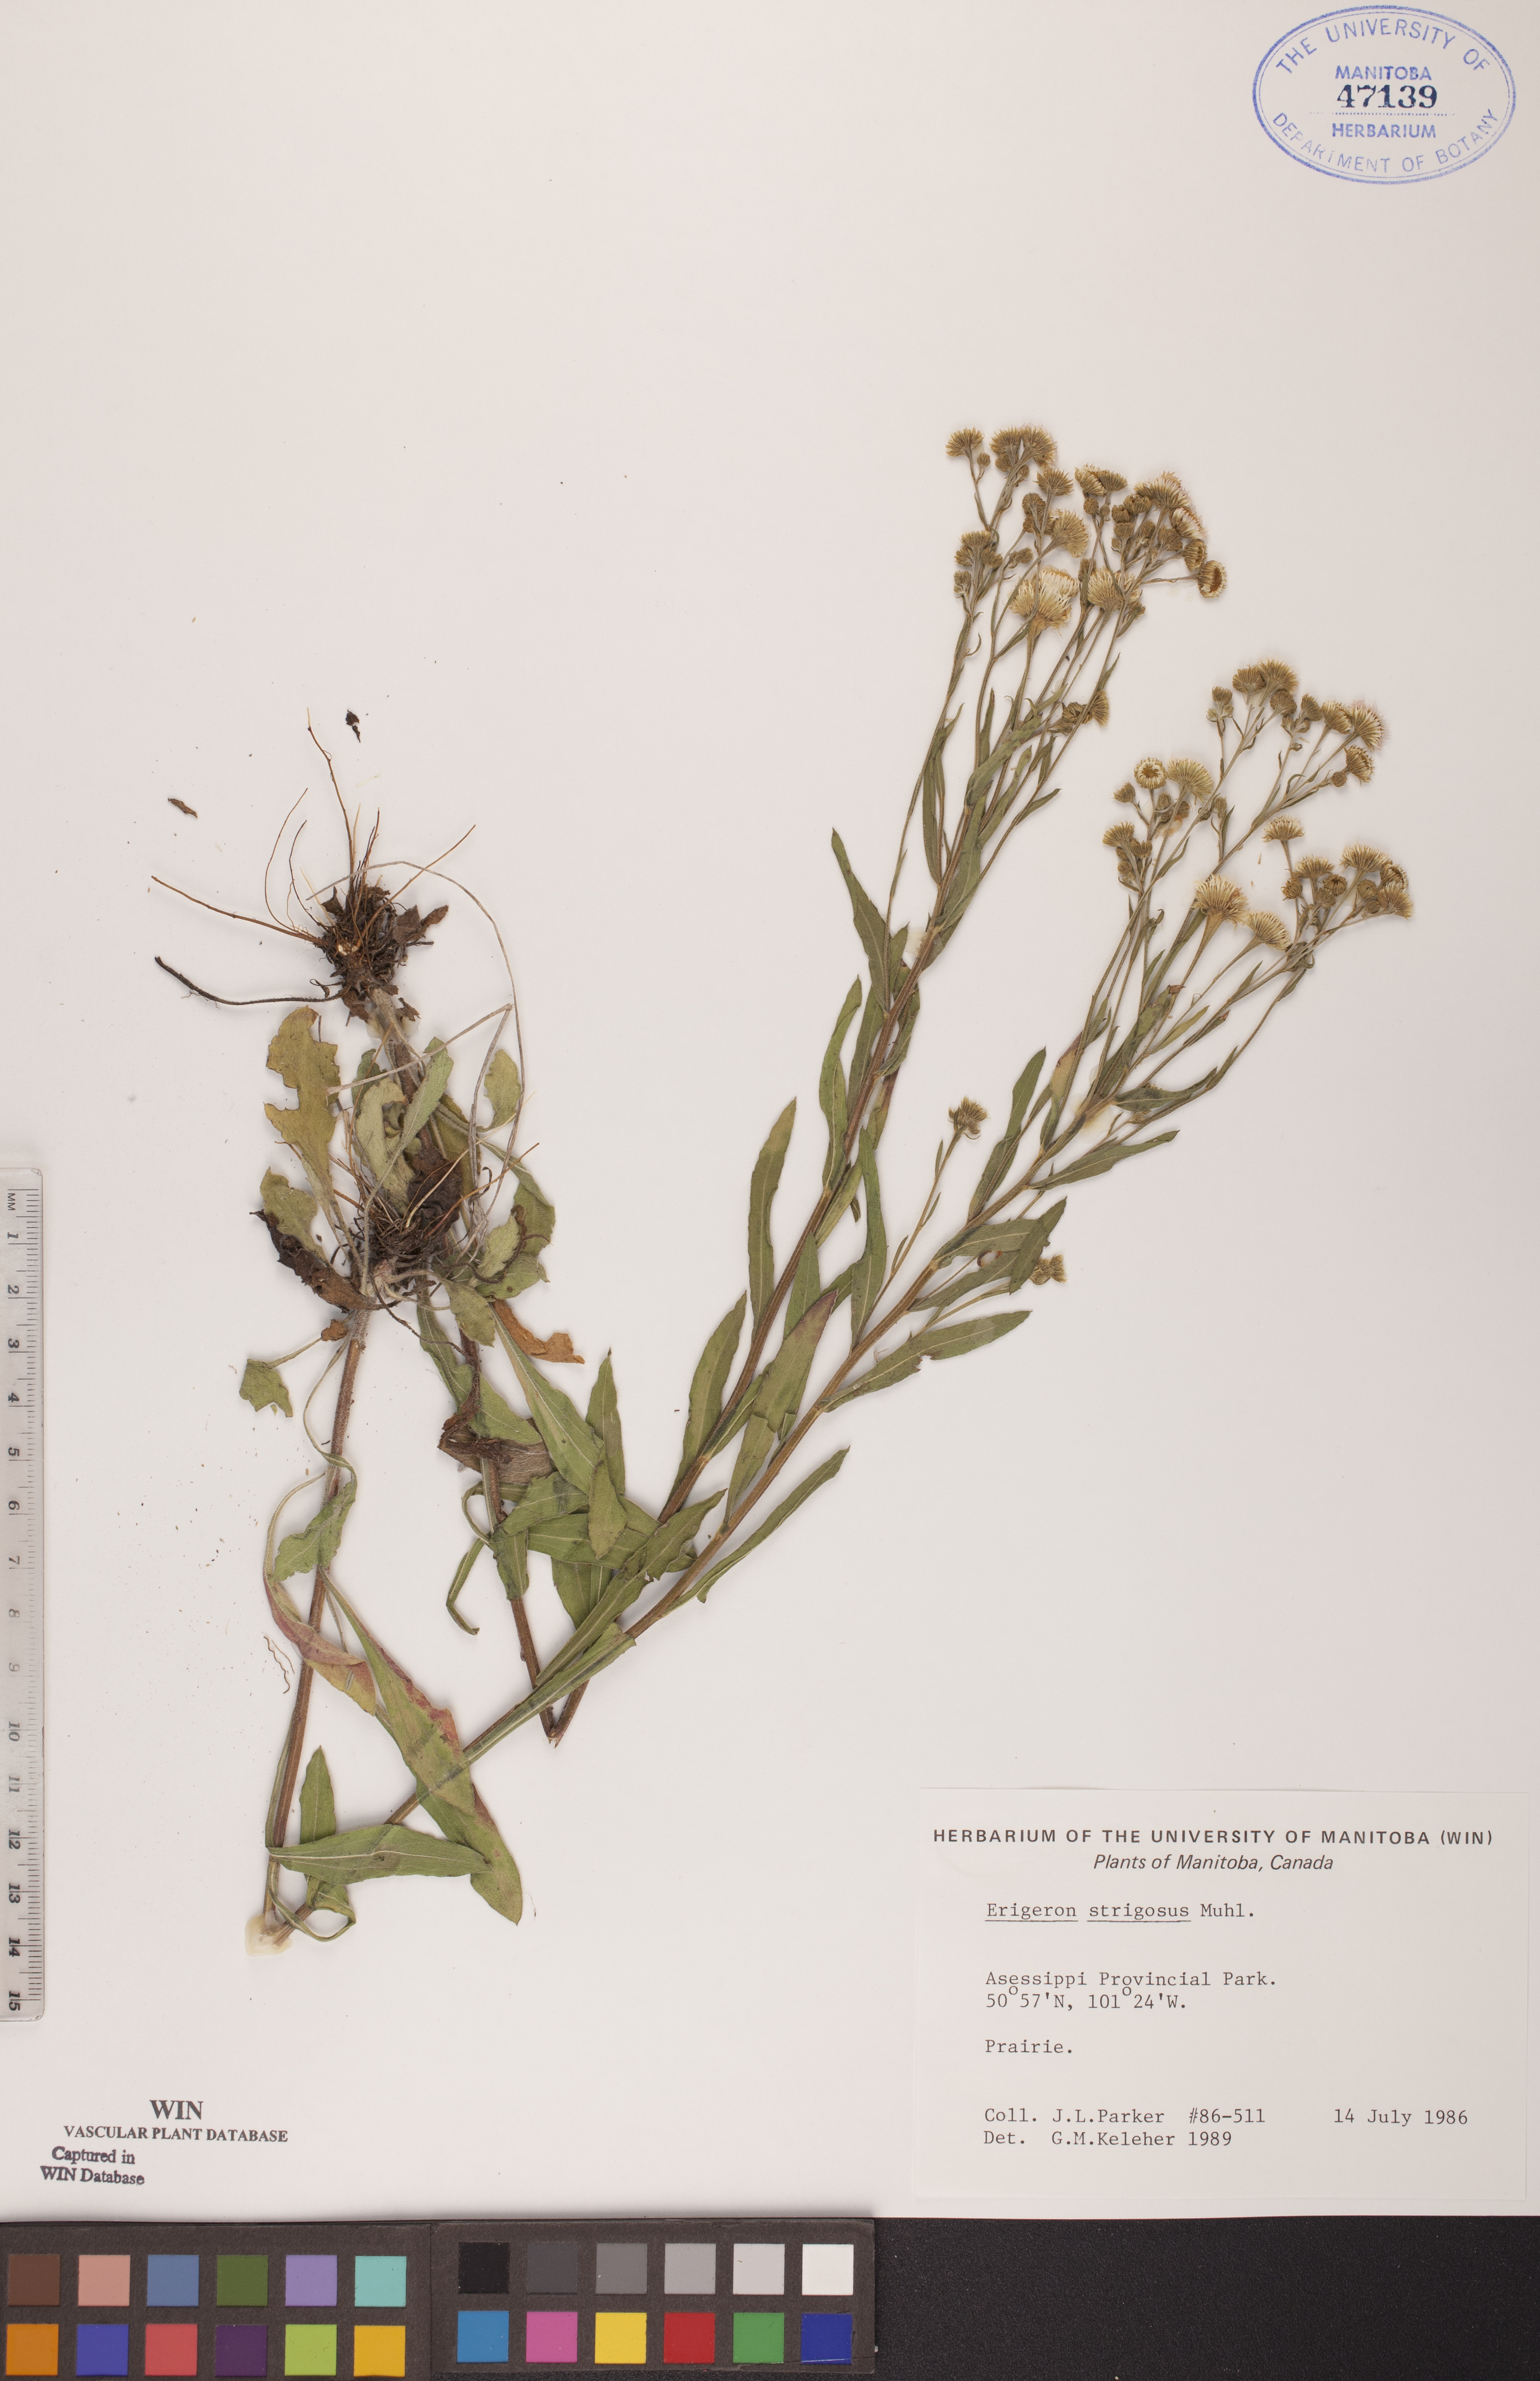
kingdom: Plantae
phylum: Tracheophyta
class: Magnoliopsida
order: Asterales
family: Asteraceae
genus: Erigeron
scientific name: Erigeron strigosus
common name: Common eastern fleabane
